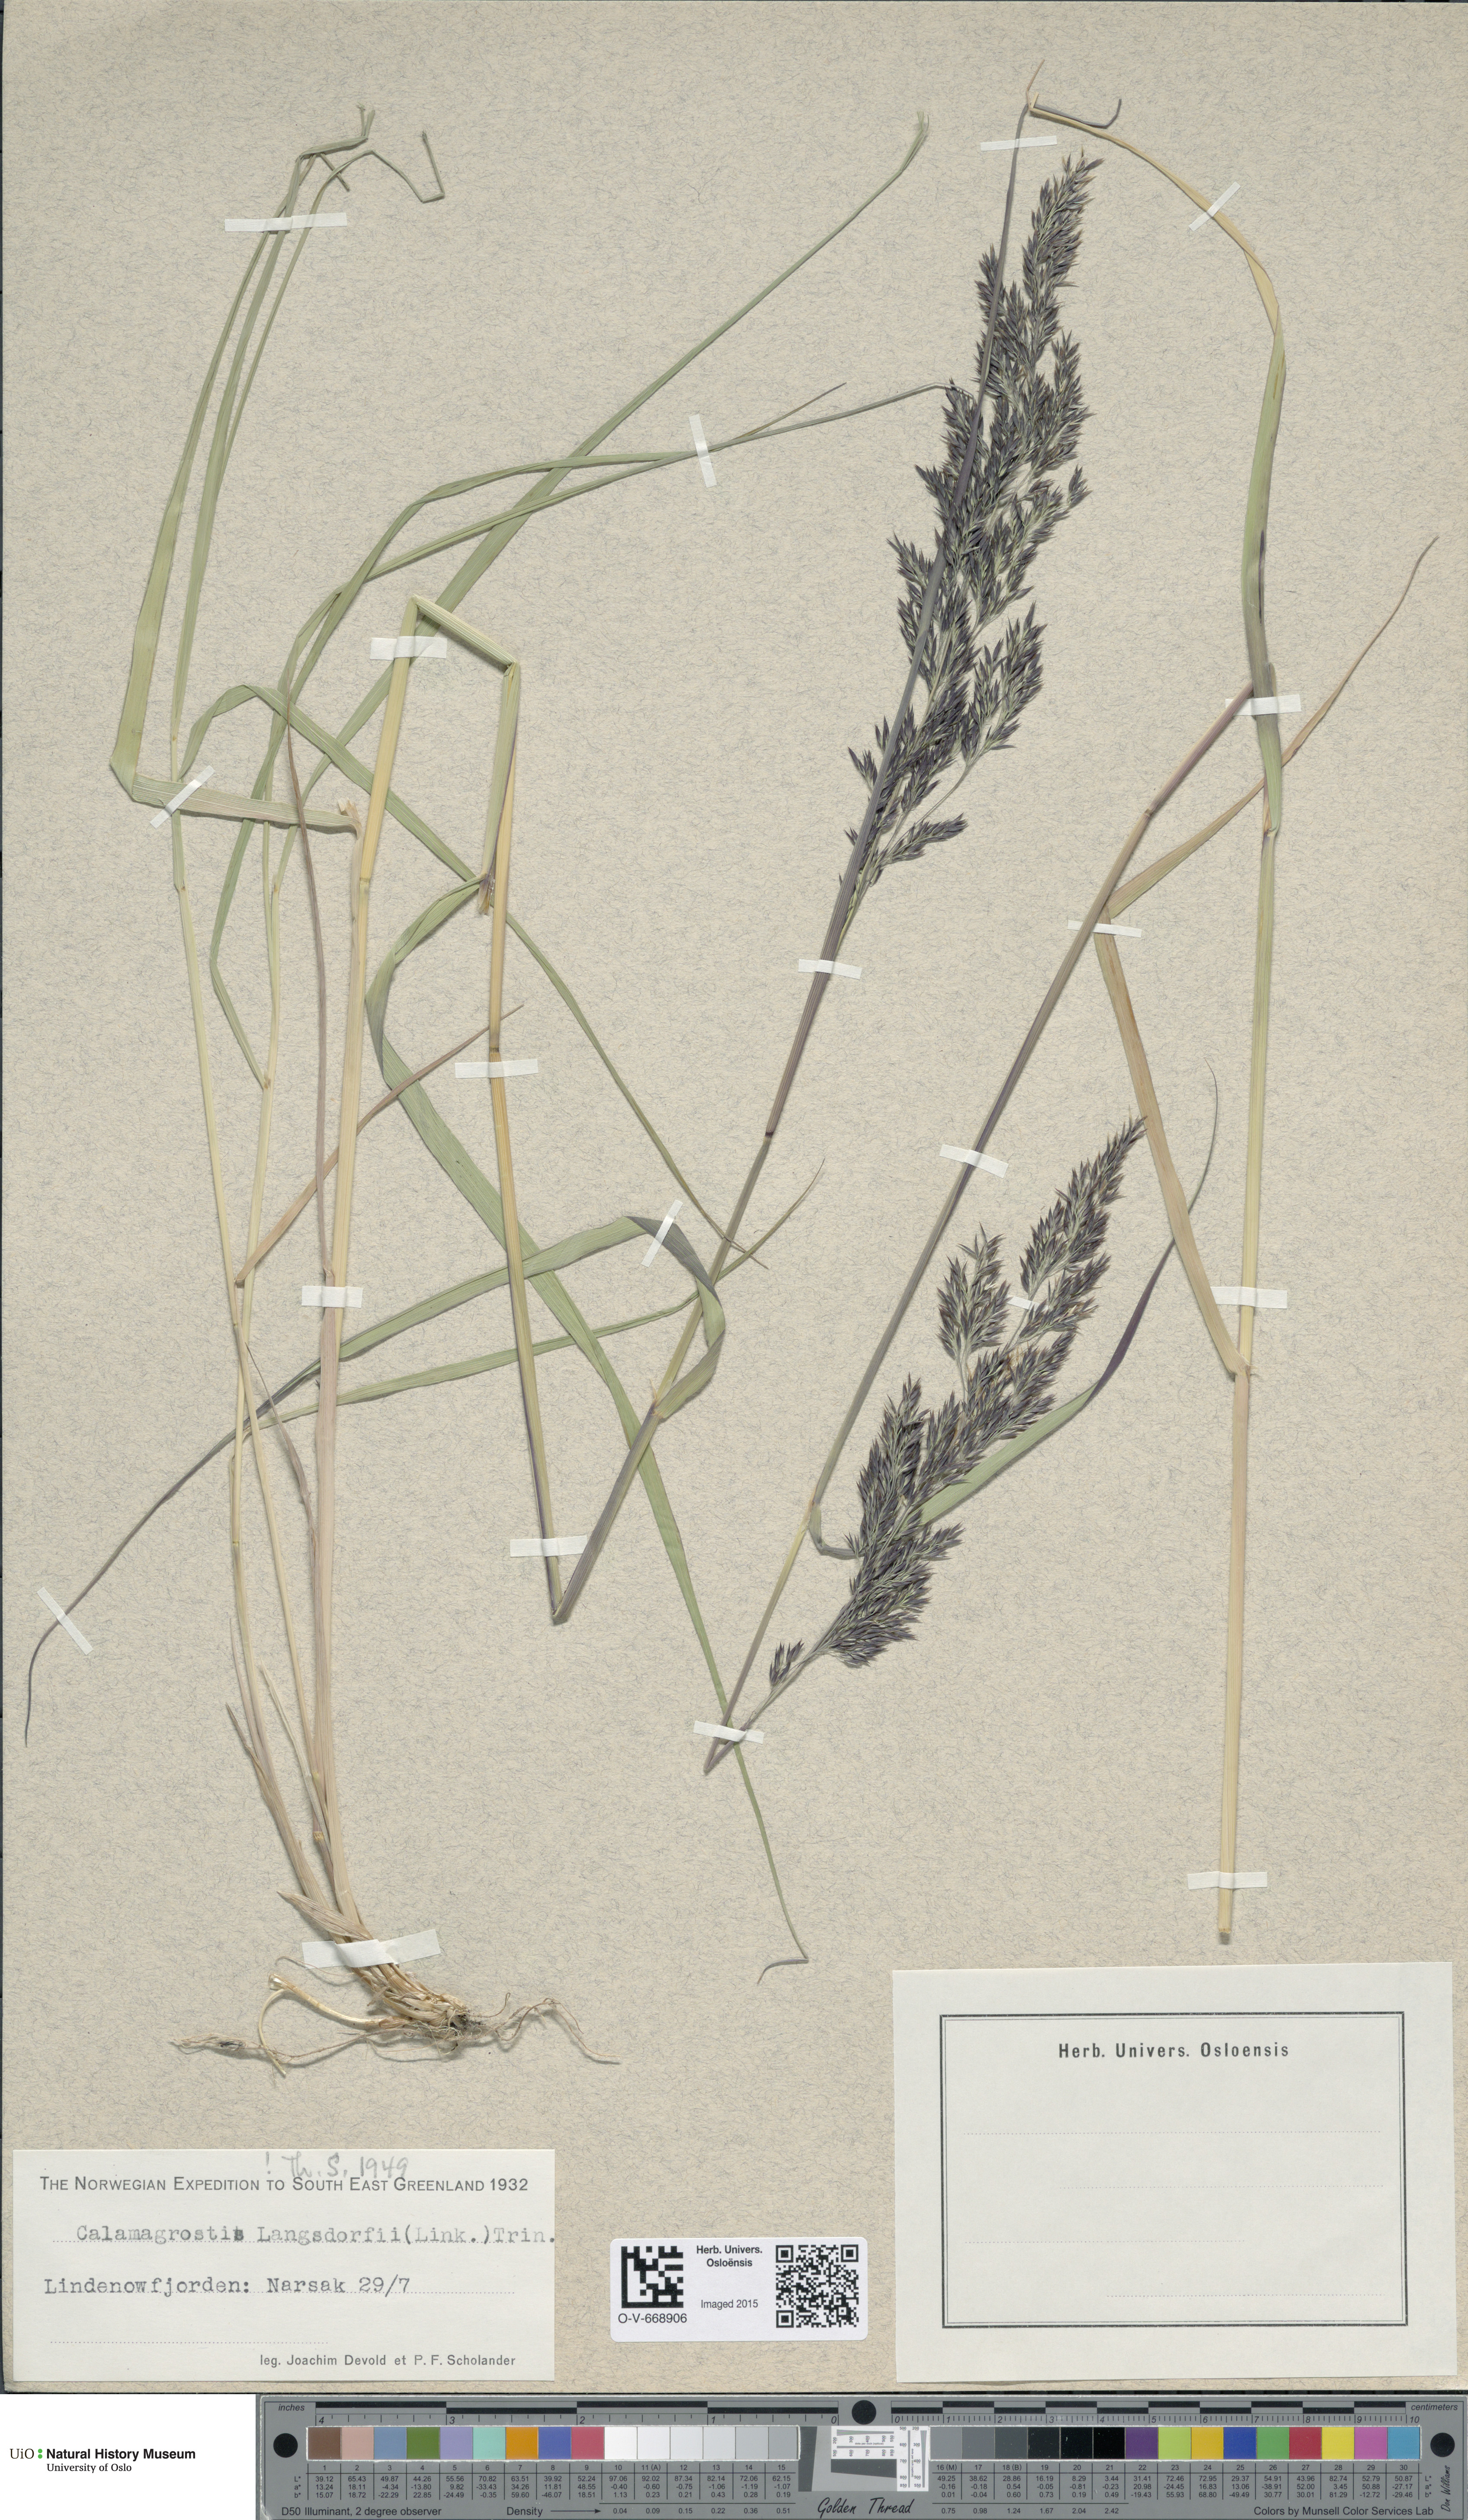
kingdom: Plantae
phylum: Tracheophyta
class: Liliopsida
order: Poales
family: Poaceae
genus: Calamagrostis
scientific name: Calamagrostis purpurea
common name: Scandinavian small-reed
